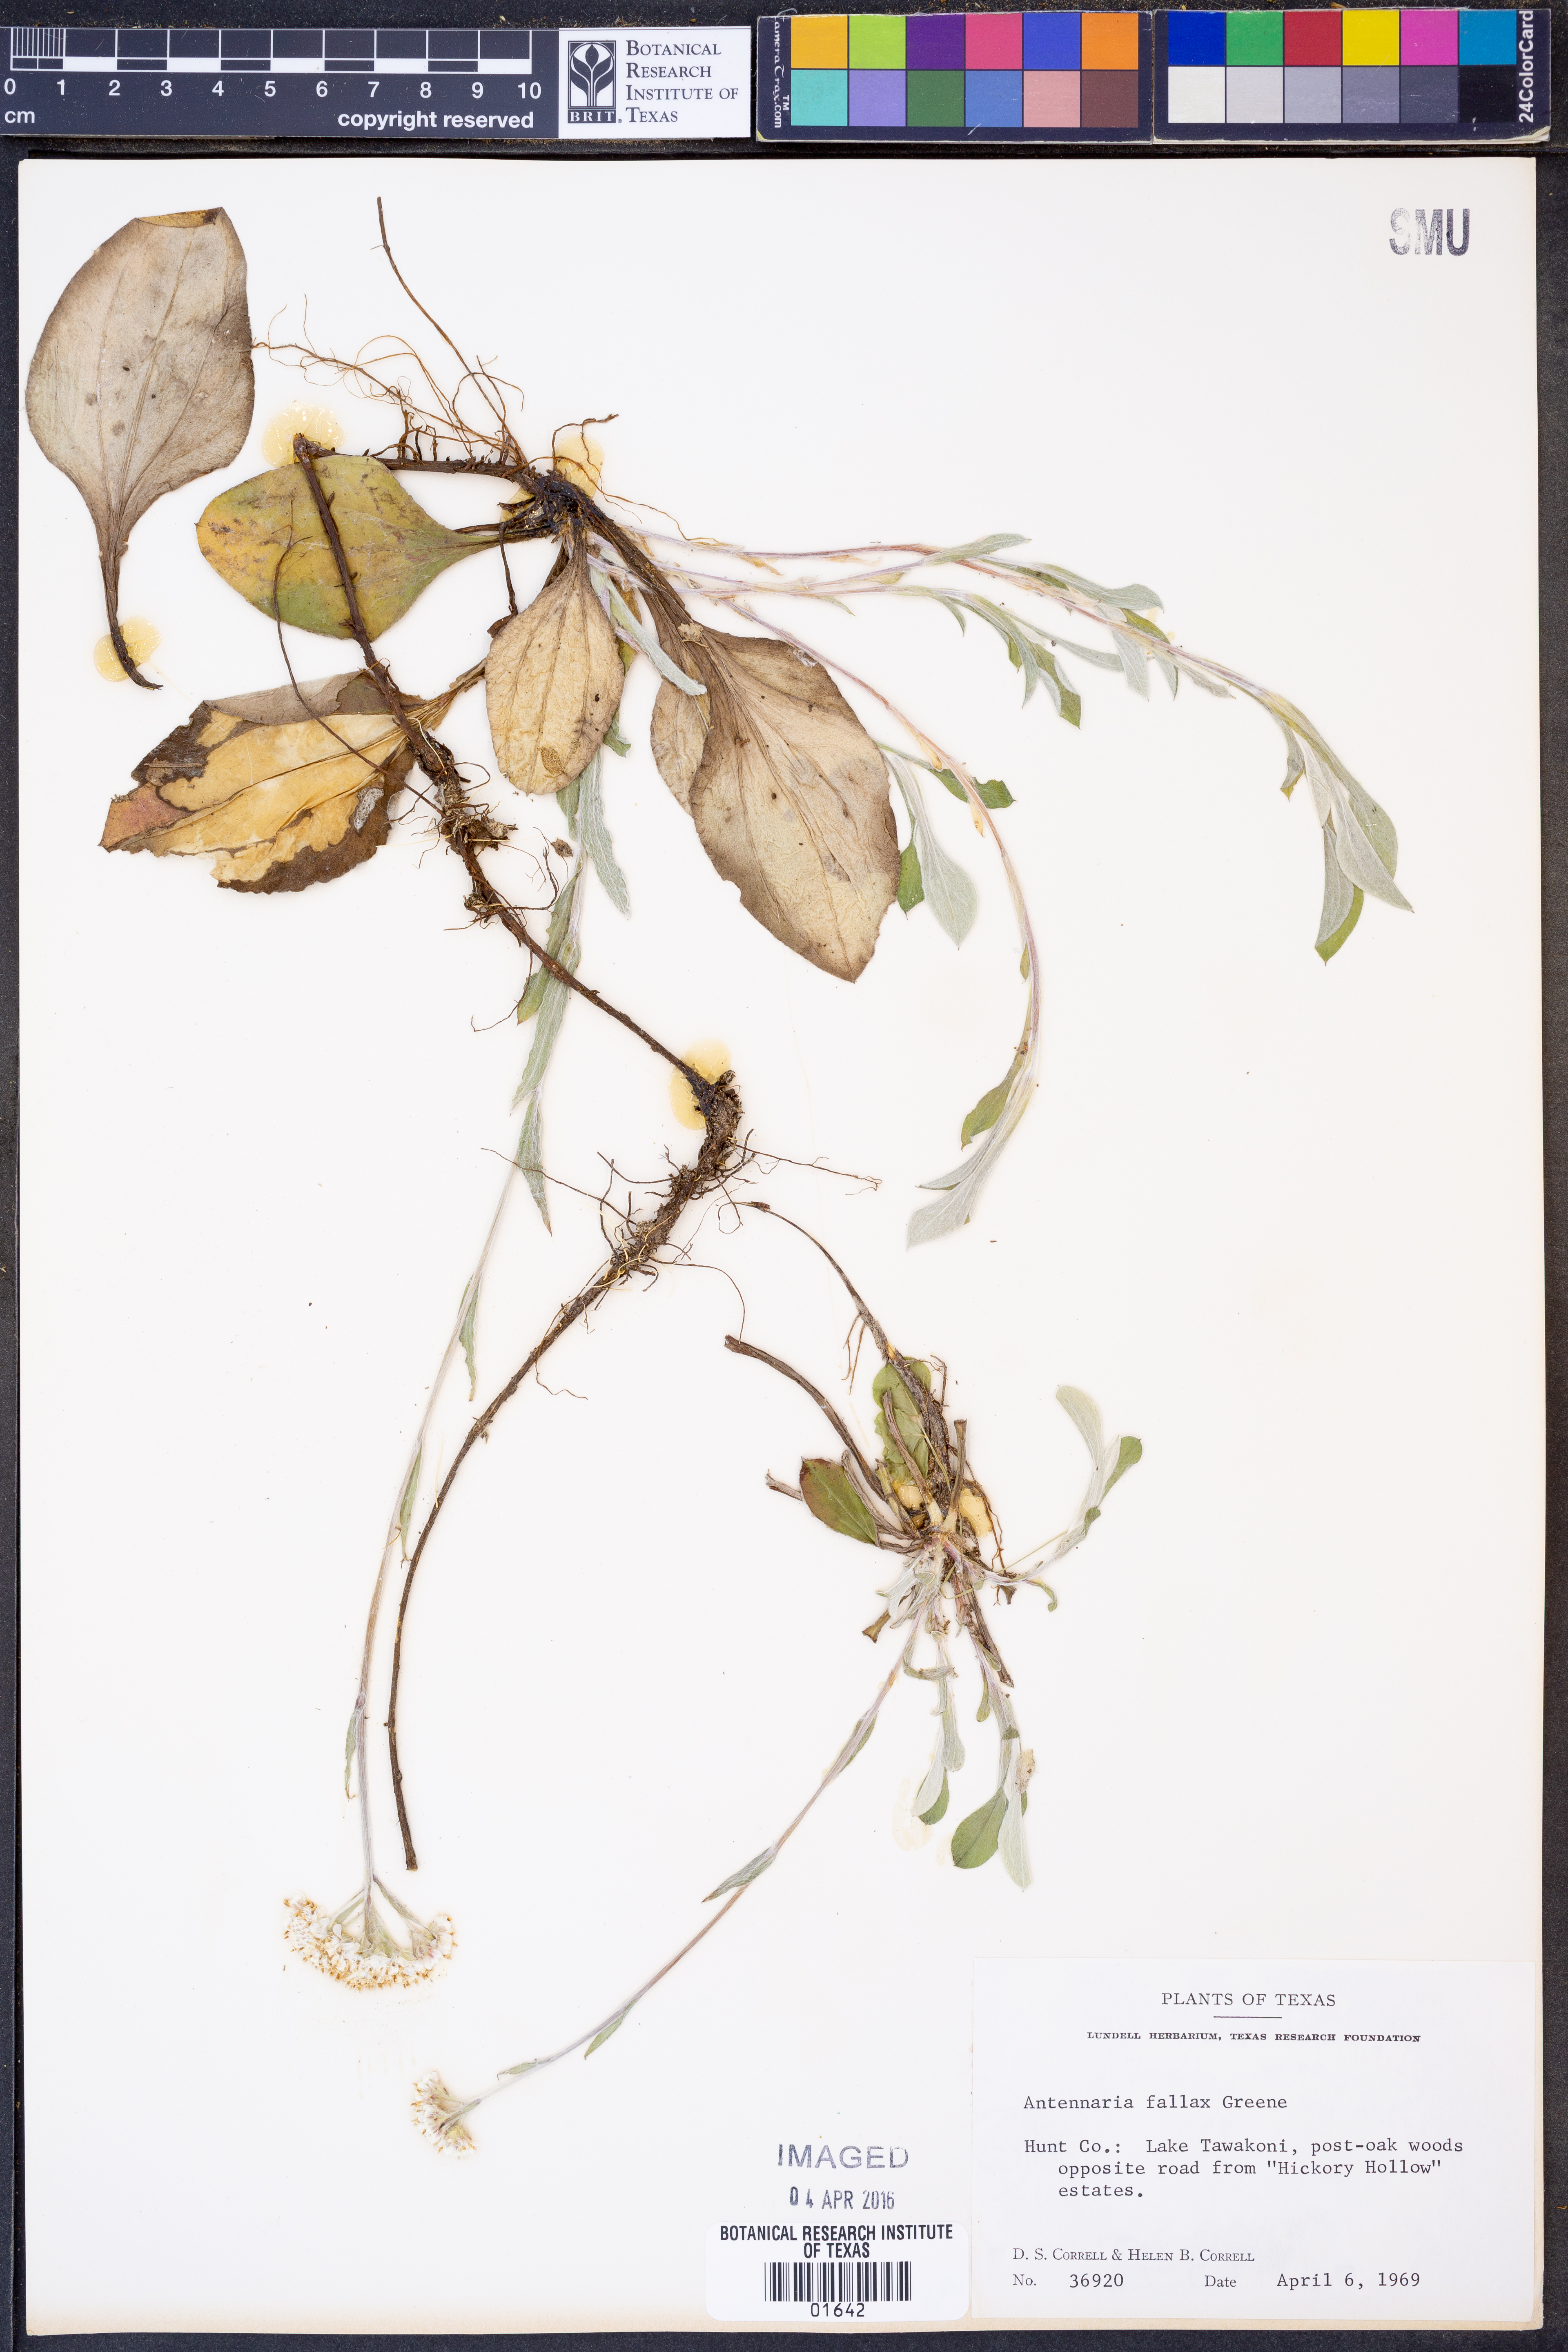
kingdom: Plantae
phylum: Tracheophyta
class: Magnoliopsida
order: Asterales
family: Asteraceae
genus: Antennaria
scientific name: Antennaria parlinii
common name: Parlin's pussytoes
